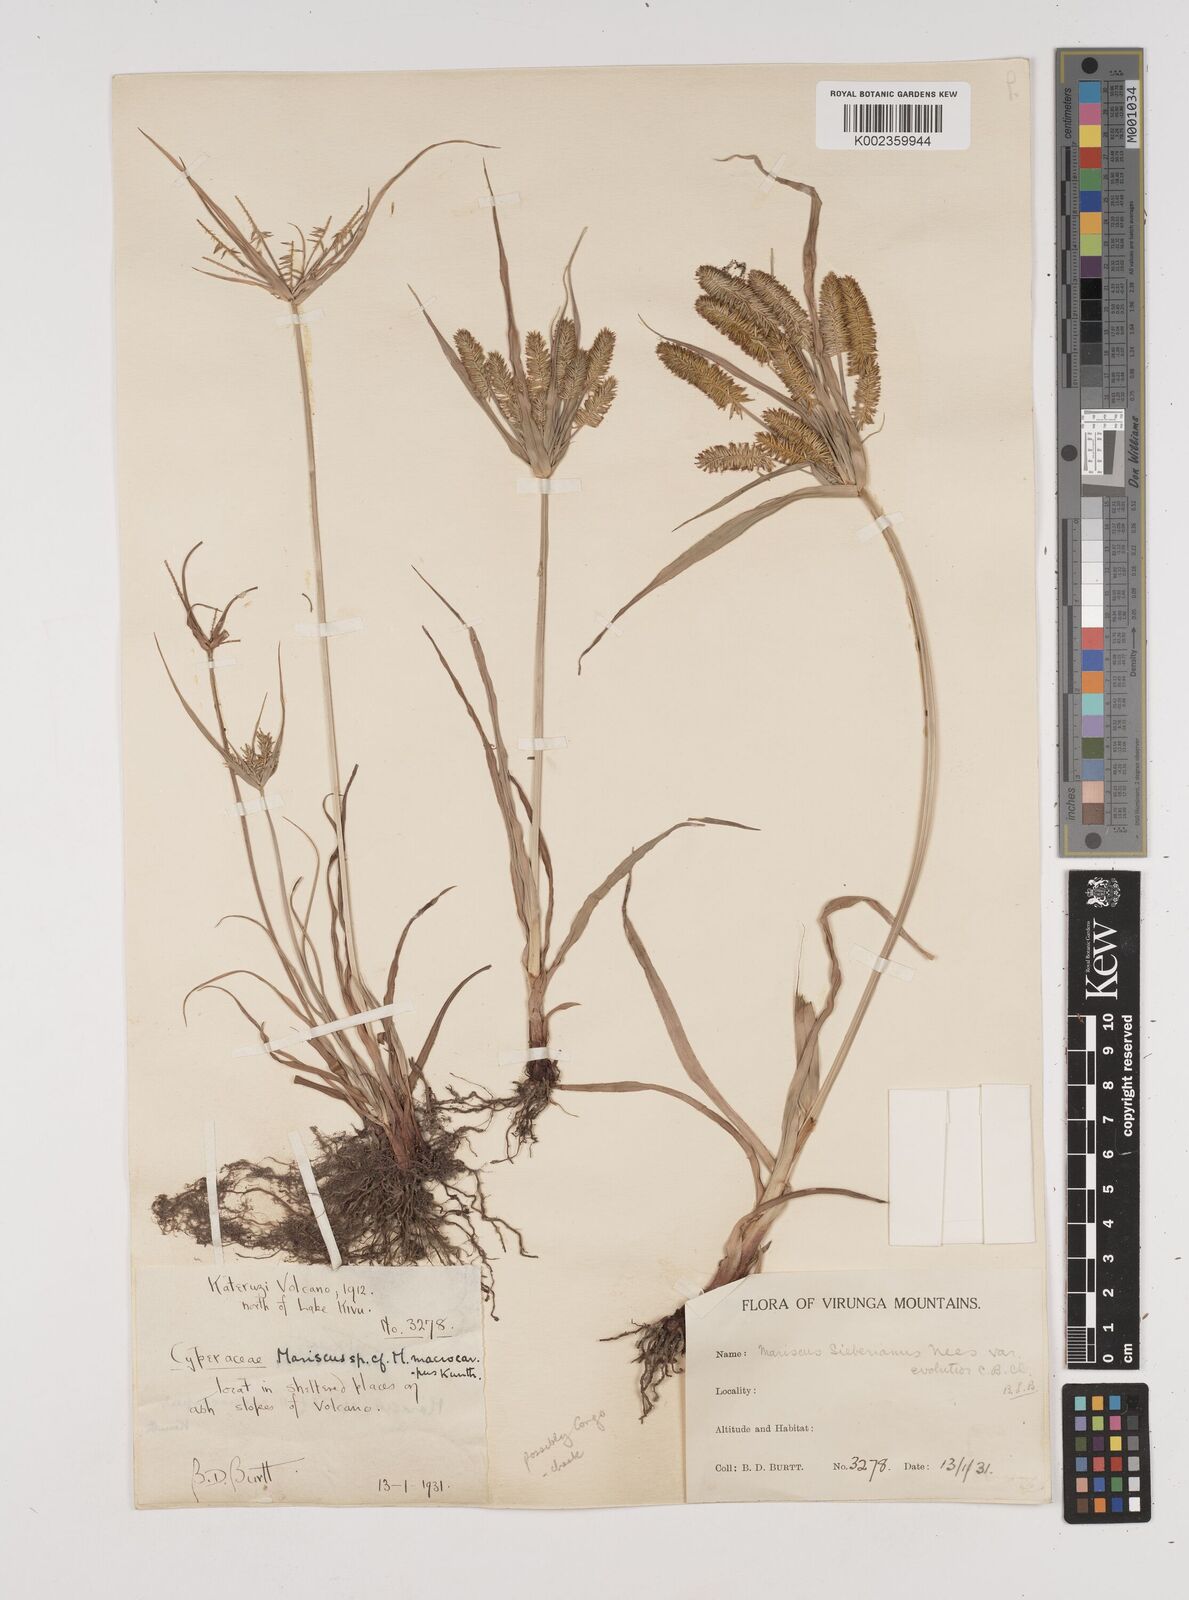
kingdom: Plantae
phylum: Tracheophyta
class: Liliopsida
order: Poales
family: Cyperaceae
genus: Cyperus
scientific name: Cyperus cyperoides
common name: Pacific island flat sedge
